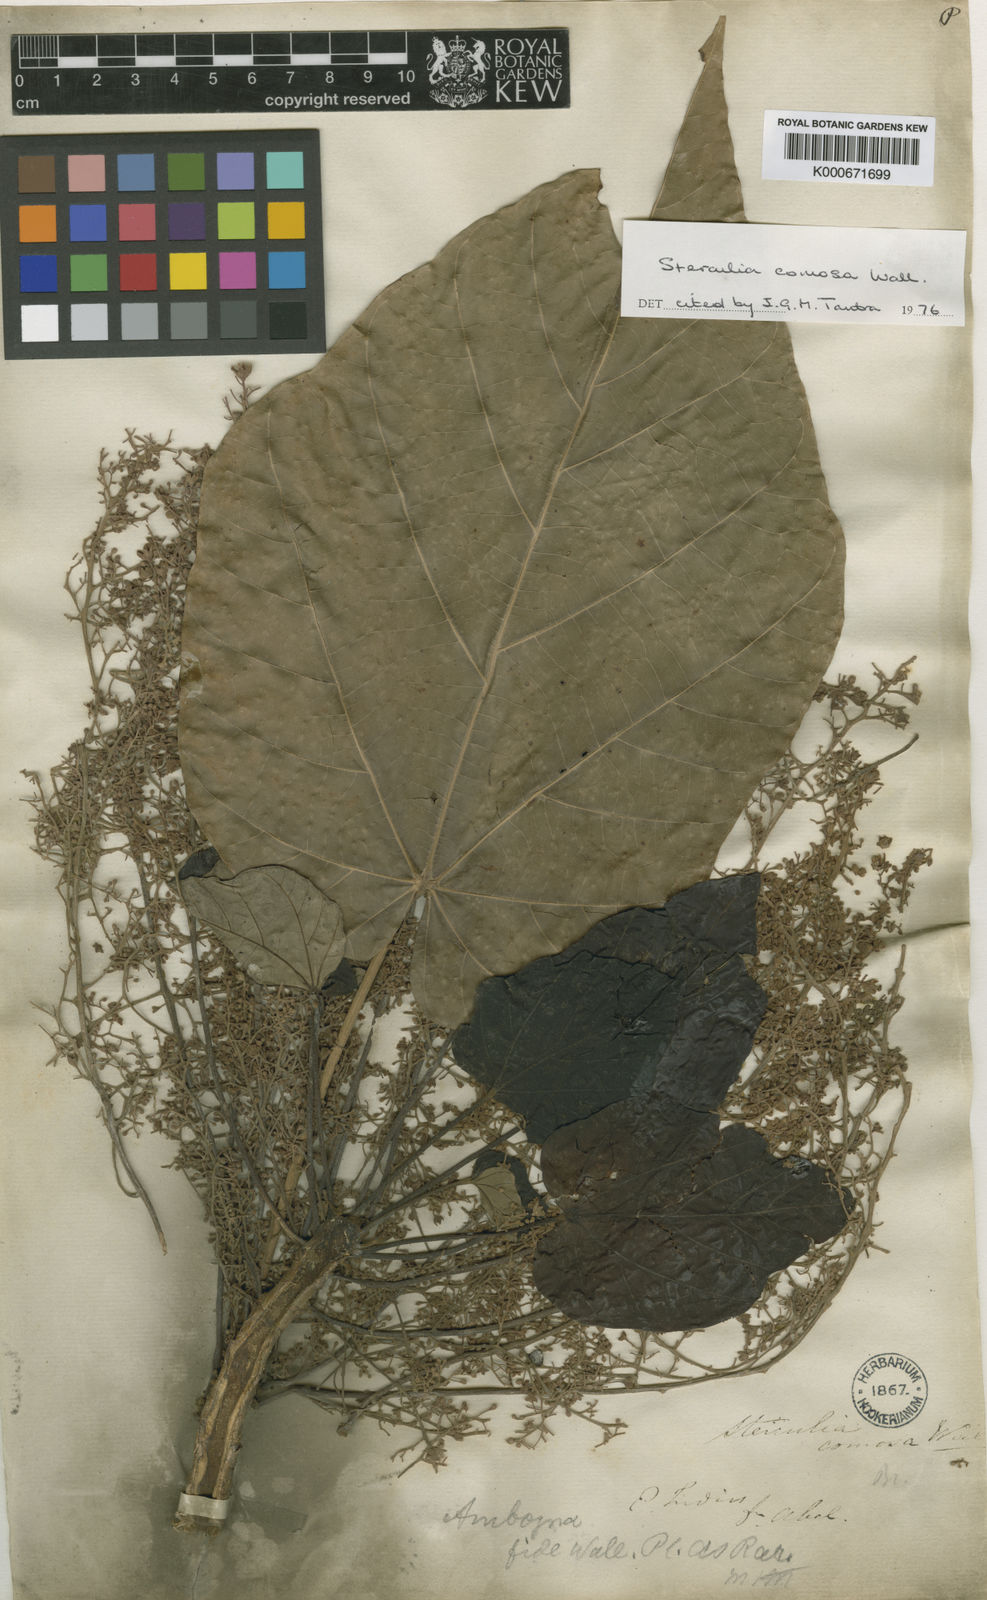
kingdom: Plantae
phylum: Tracheophyta
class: Magnoliopsida
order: Malvales
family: Malvaceae
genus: Sterculia
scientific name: Sterculia comosa
